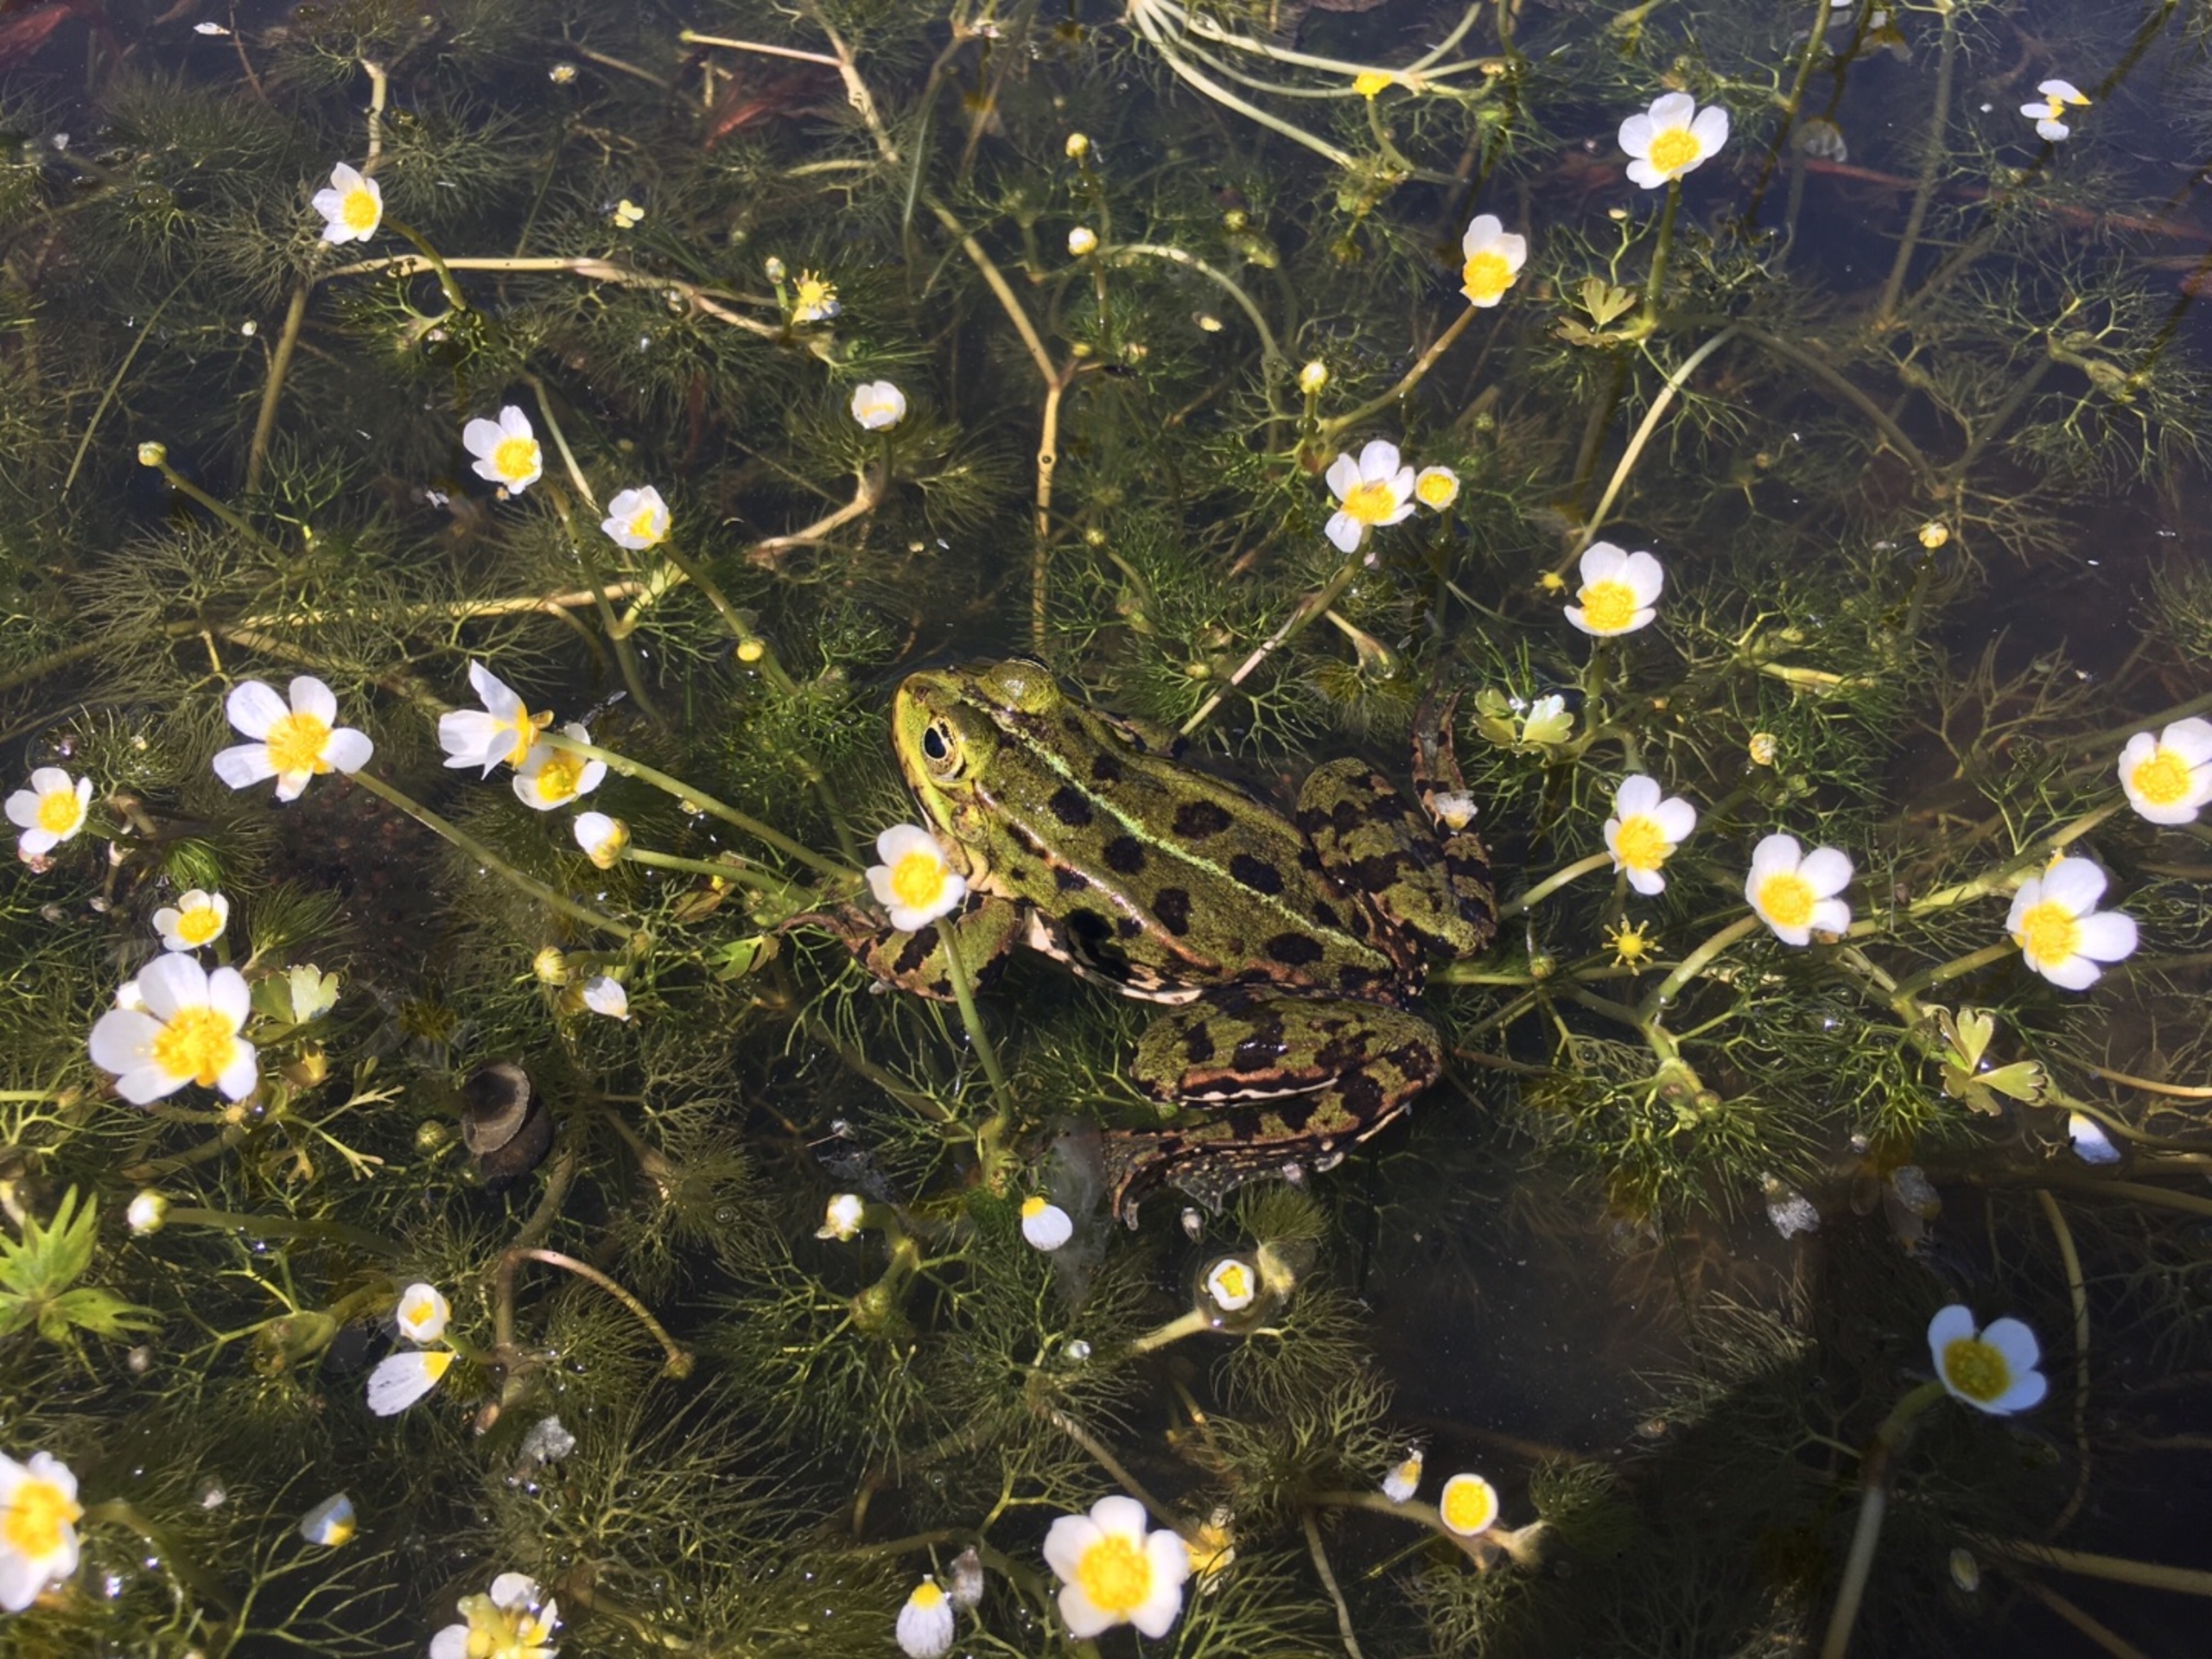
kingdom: Animalia
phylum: Chordata
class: Amphibia
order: Anura
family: Ranidae
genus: Pelophylax
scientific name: Pelophylax lessonae
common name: Grøn frø
